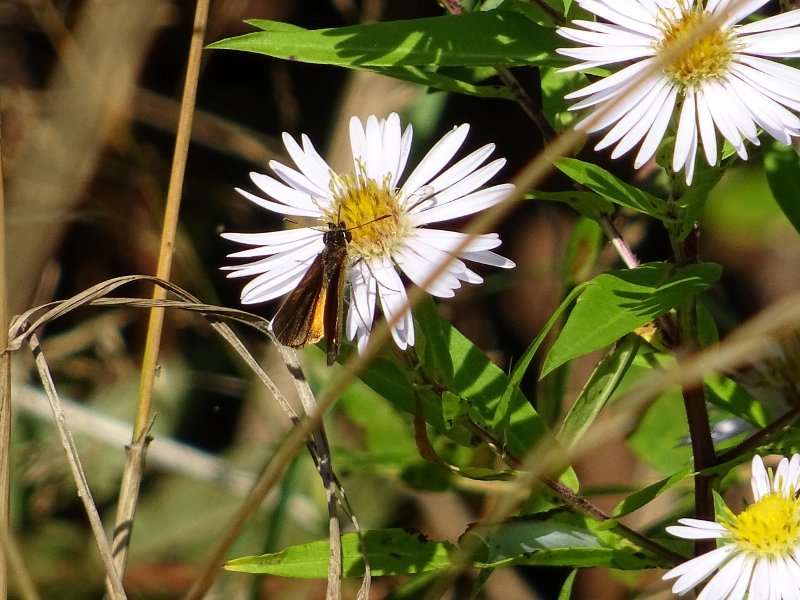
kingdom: Animalia
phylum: Arthropoda
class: Insecta
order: Lepidoptera
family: Hesperiidae
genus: Ancyloxypha
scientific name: Ancyloxypha numitor
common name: Least Skipper
